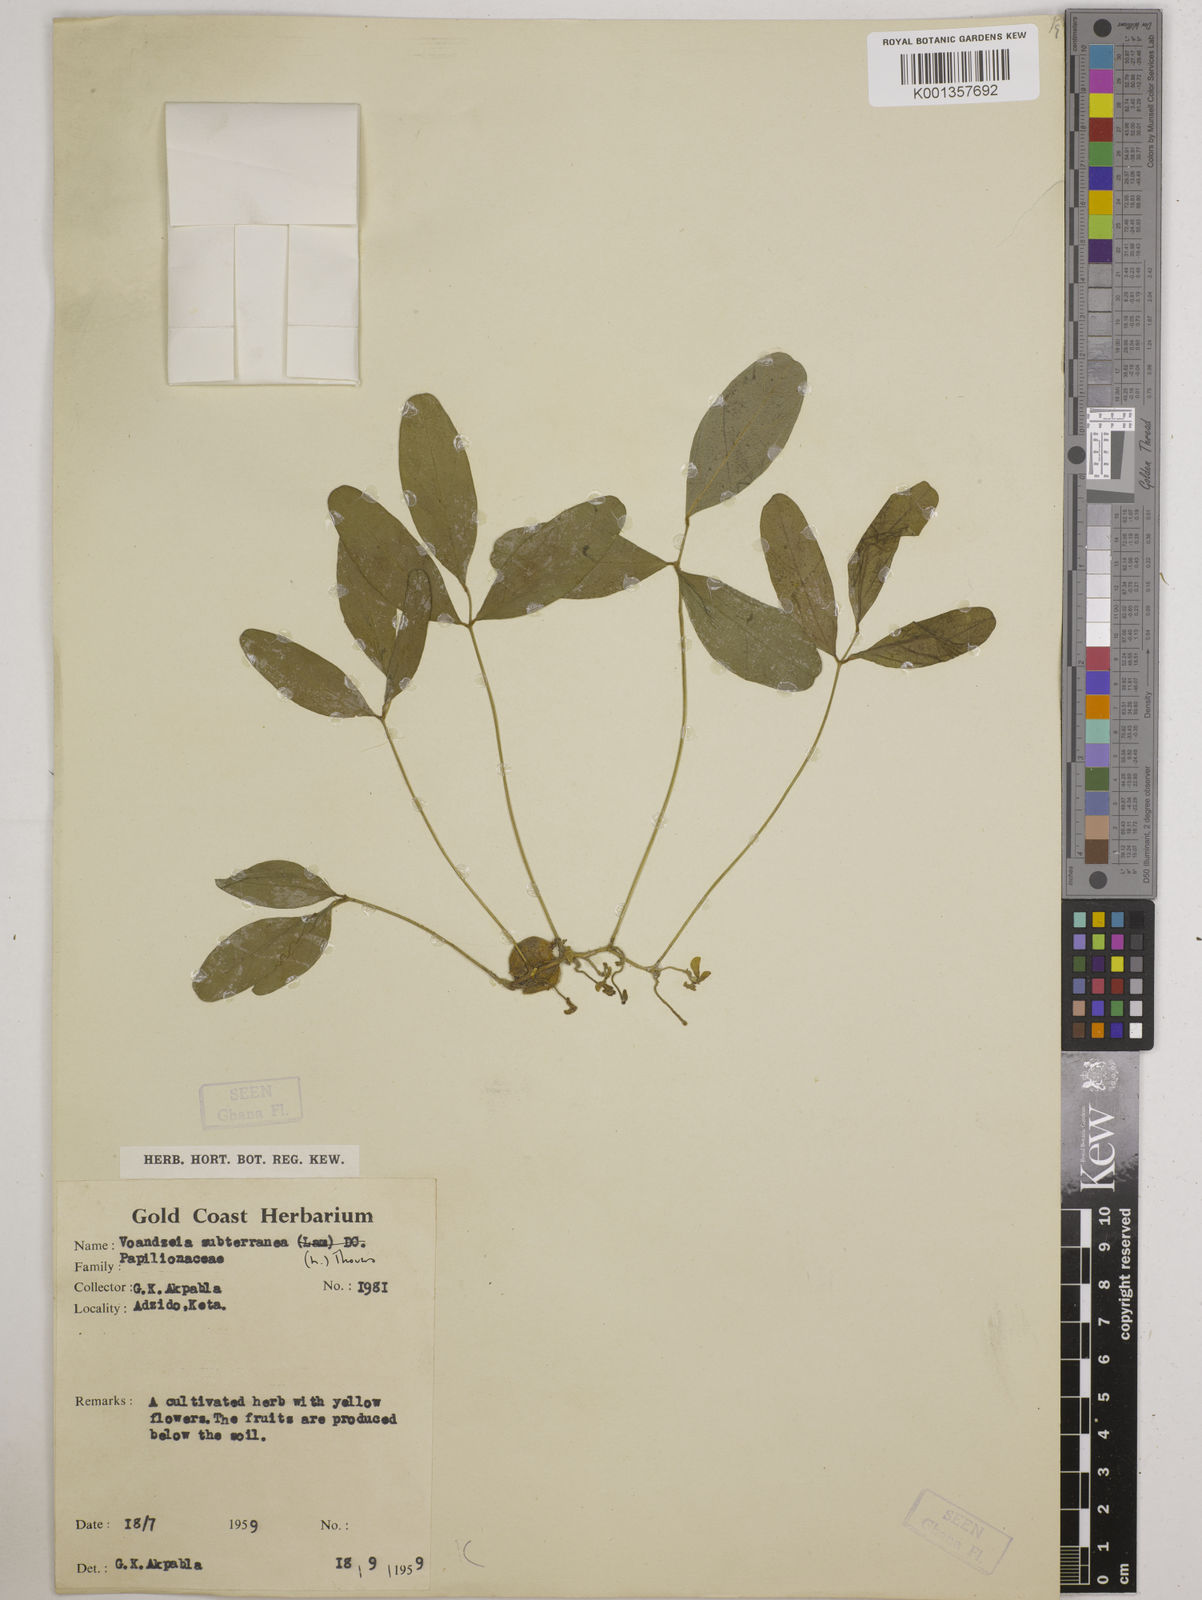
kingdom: Plantae
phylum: Tracheophyta
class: Magnoliopsida
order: Fabales
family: Fabaceae
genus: Vigna
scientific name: Vigna subterranea
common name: Bambara groundnut
